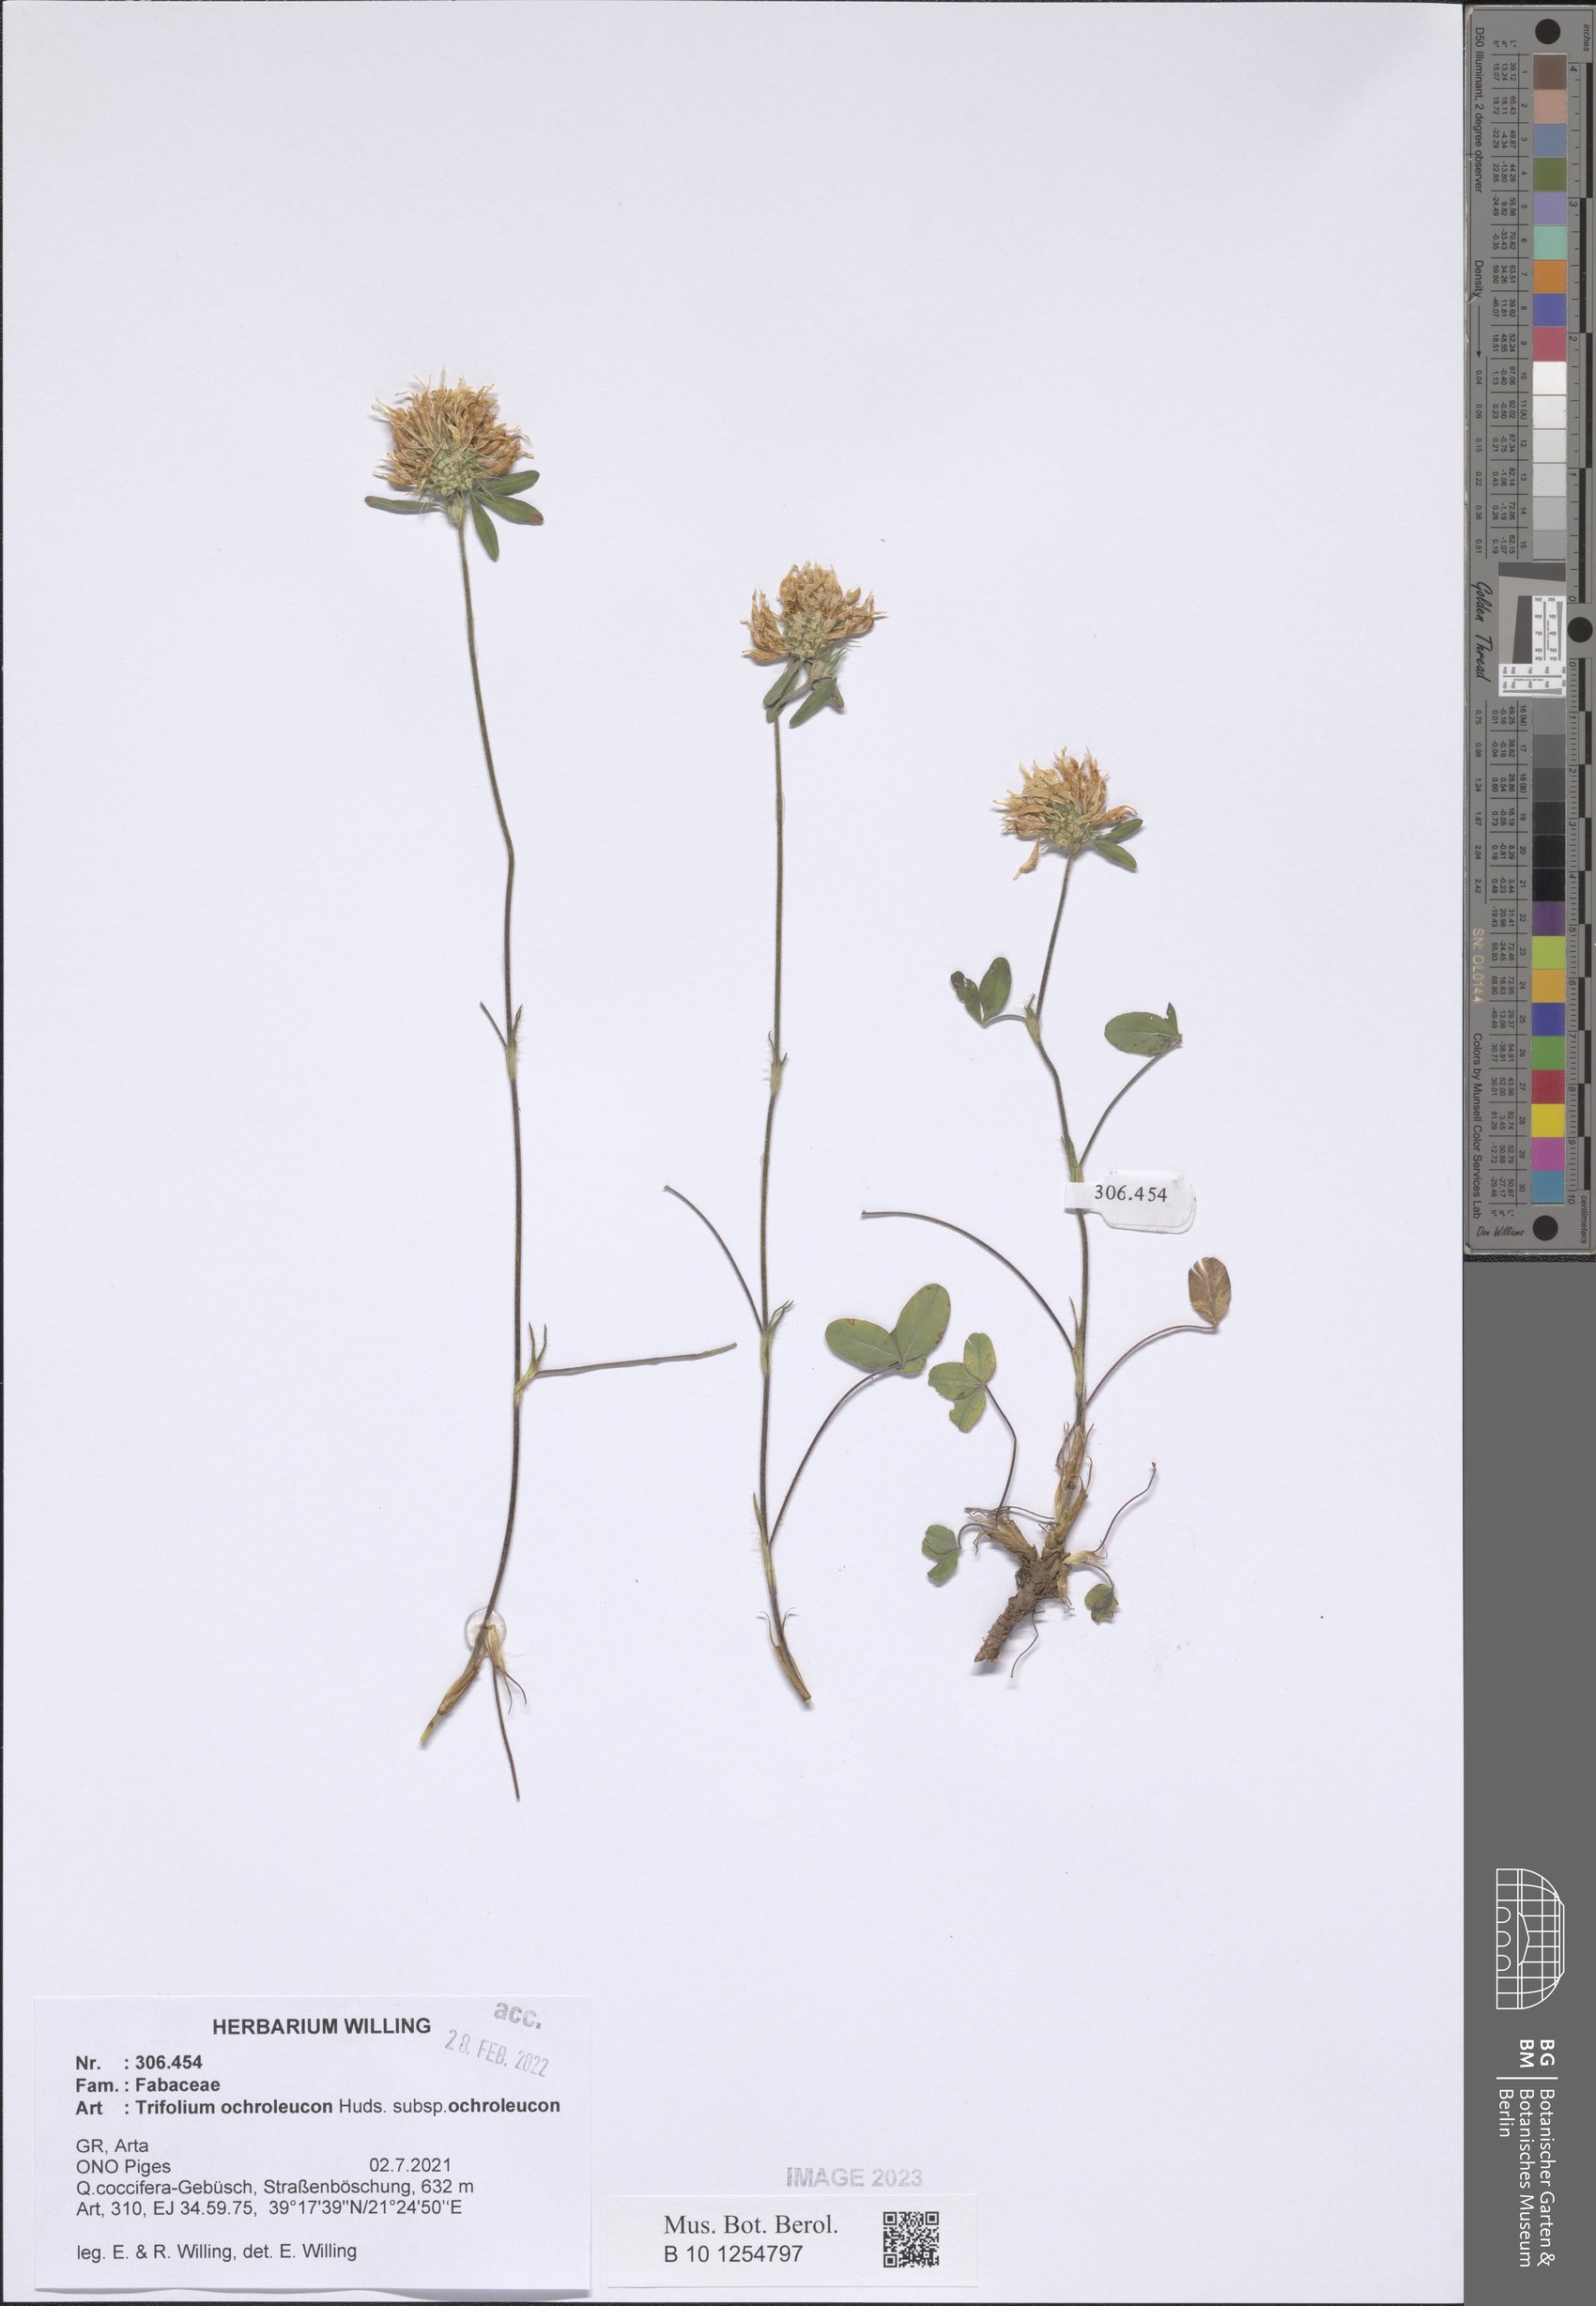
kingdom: Plantae
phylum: Tracheophyta
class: Magnoliopsida
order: Fabales
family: Fabaceae
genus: Trifolium
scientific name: Trifolium ochroleucon
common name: Sulphur clover
